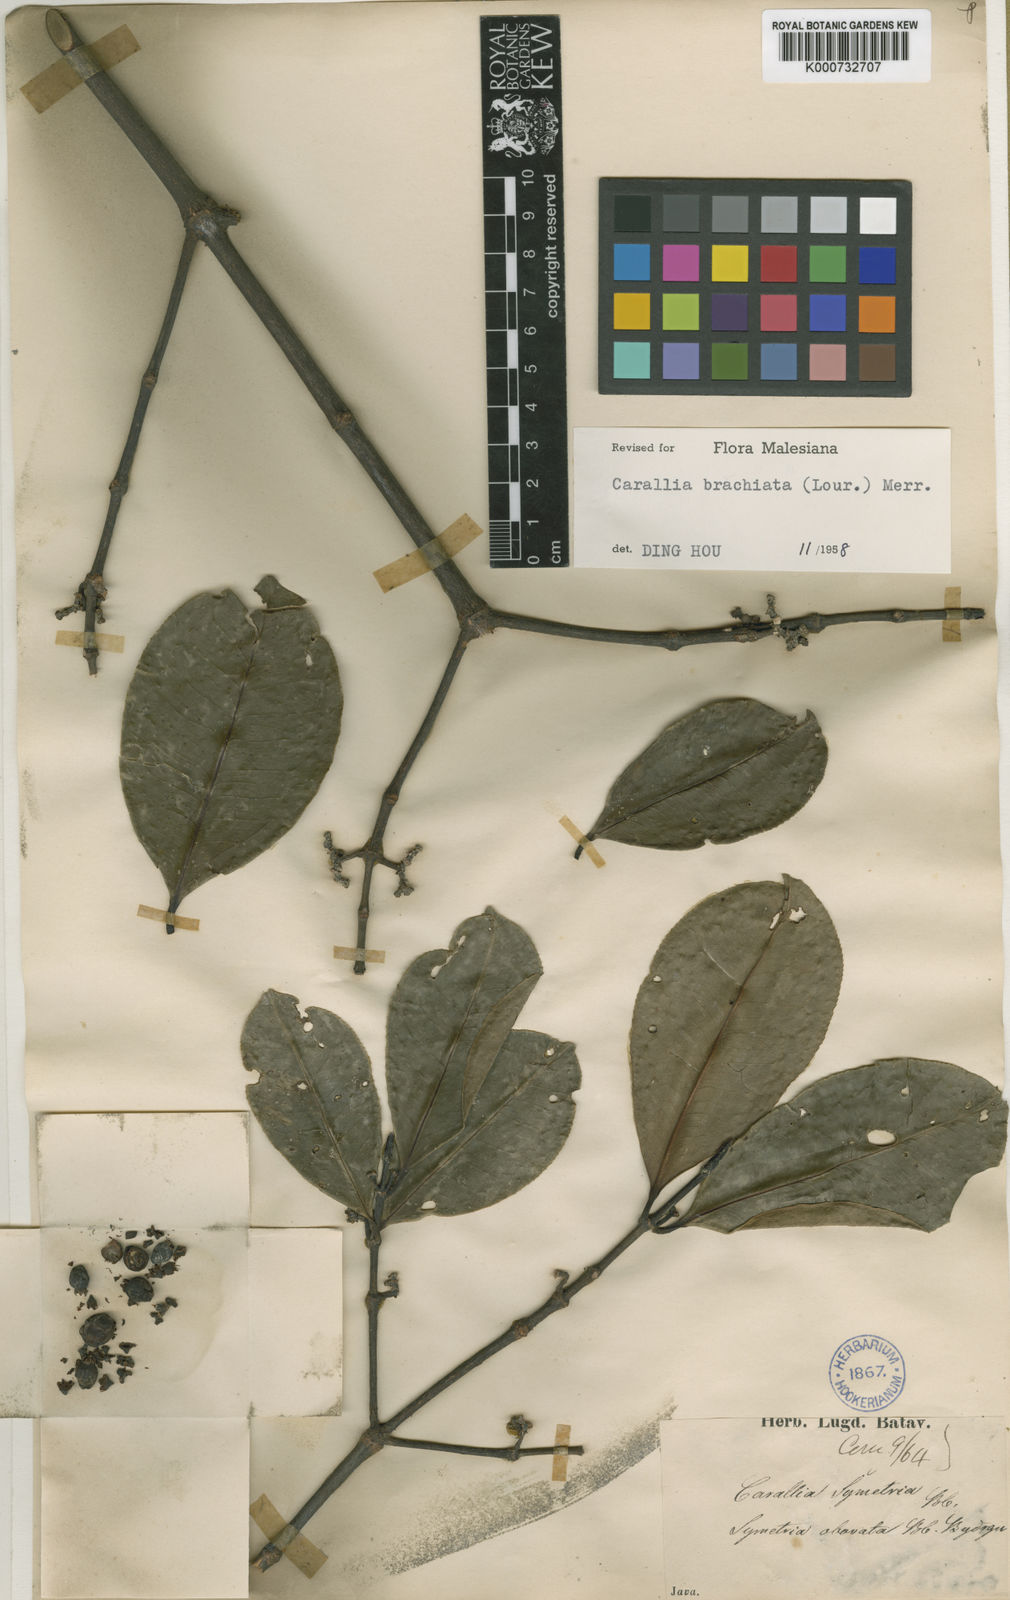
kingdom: Plantae
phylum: Tracheophyta
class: Magnoliopsida
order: Malpighiales
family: Rhizophoraceae
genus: Carallia
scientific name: Carallia brachiata
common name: Carallawood
